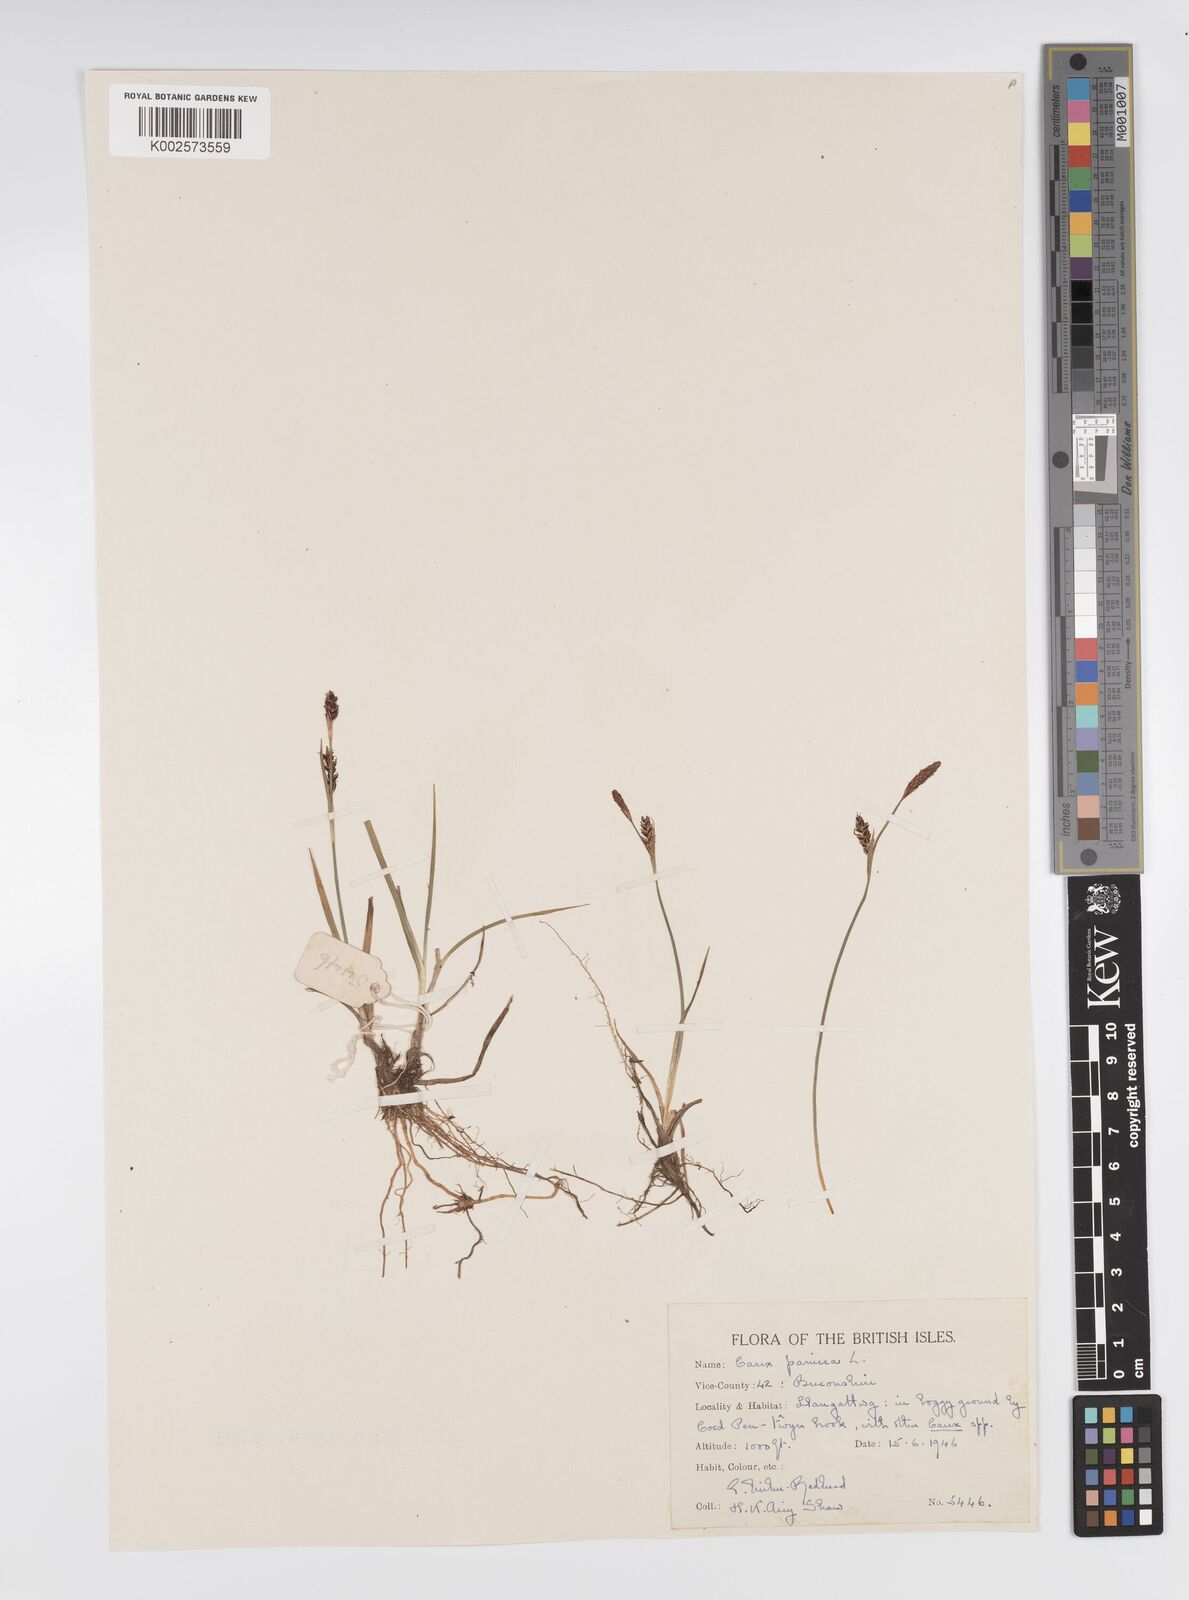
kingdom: Plantae
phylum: Tracheophyta
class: Liliopsida
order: Poales
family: Cyperaceae
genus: Carex
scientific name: Carex panicea
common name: Carnation sedge
